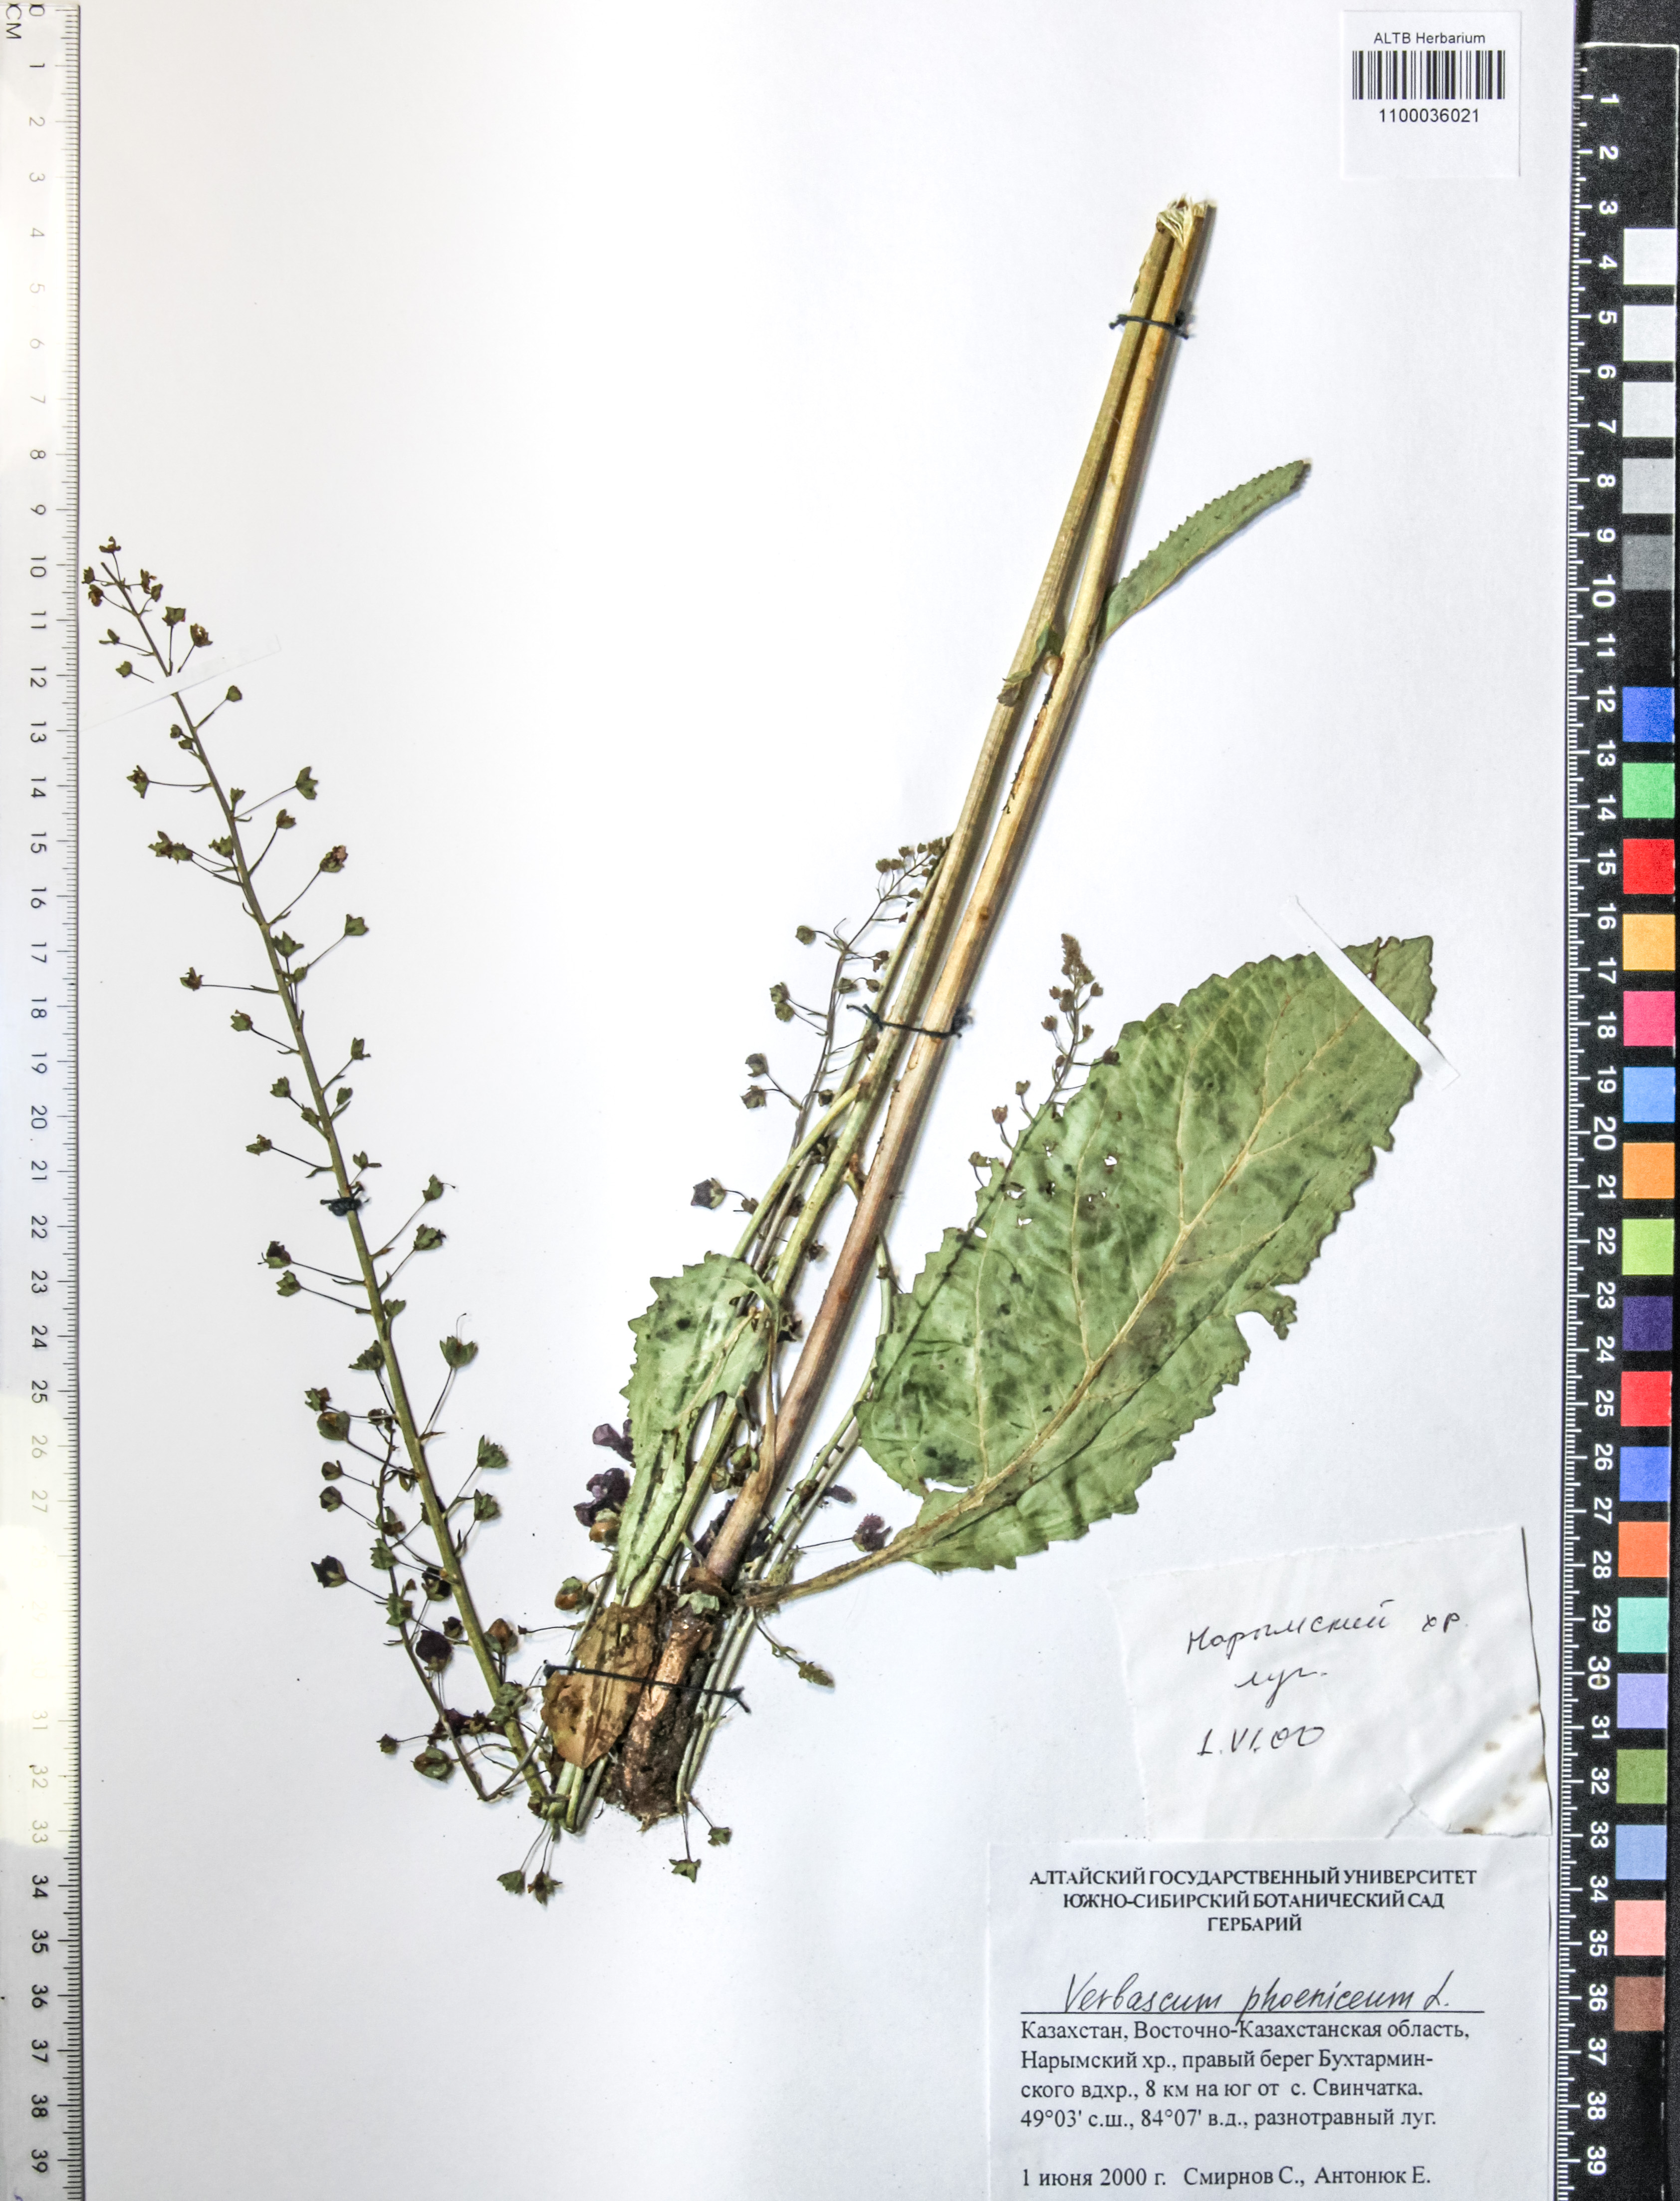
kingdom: Plantae
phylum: Tracheophyta
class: Magnoliopsida
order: Lamiales
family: Scrophulariaceae
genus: Verbascum
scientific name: Verbascum phoeniceum
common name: Purple mullein
